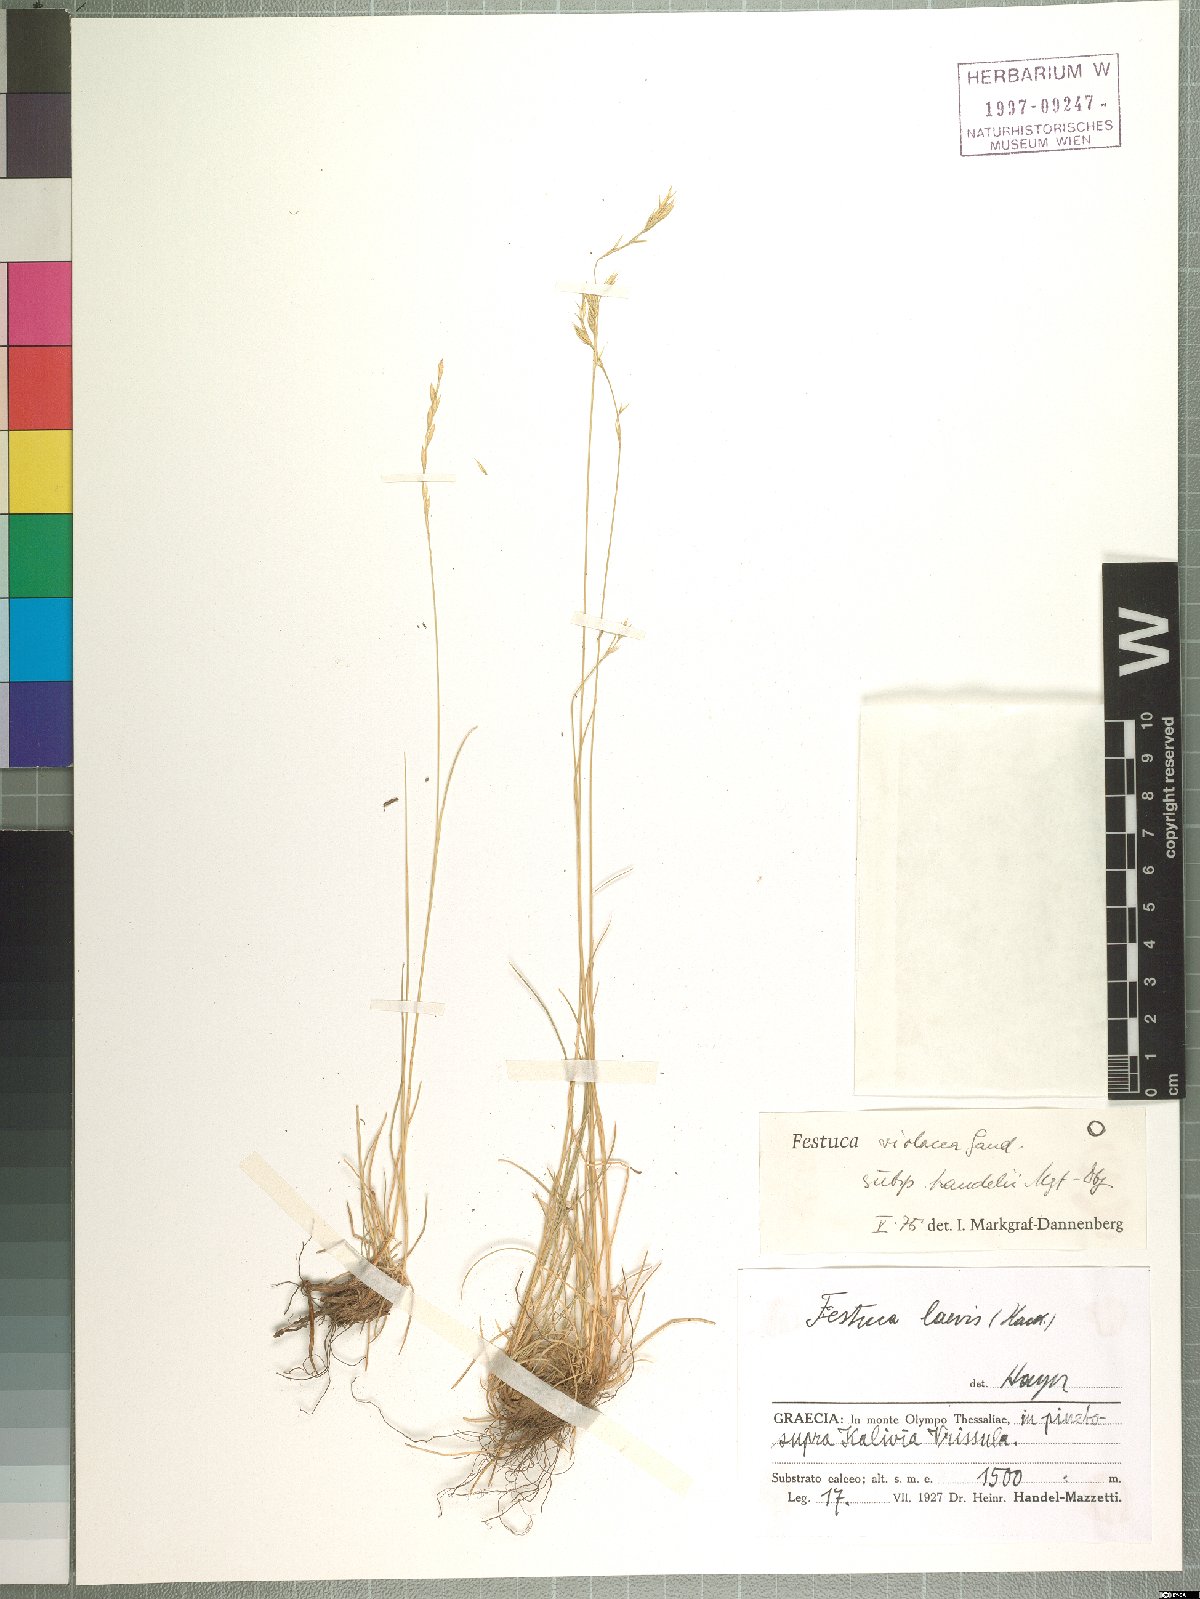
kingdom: Plantae
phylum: Tracheophyta
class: Liliopsida
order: Poales
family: Poaceae
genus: Festuca
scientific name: Festuca violacea
